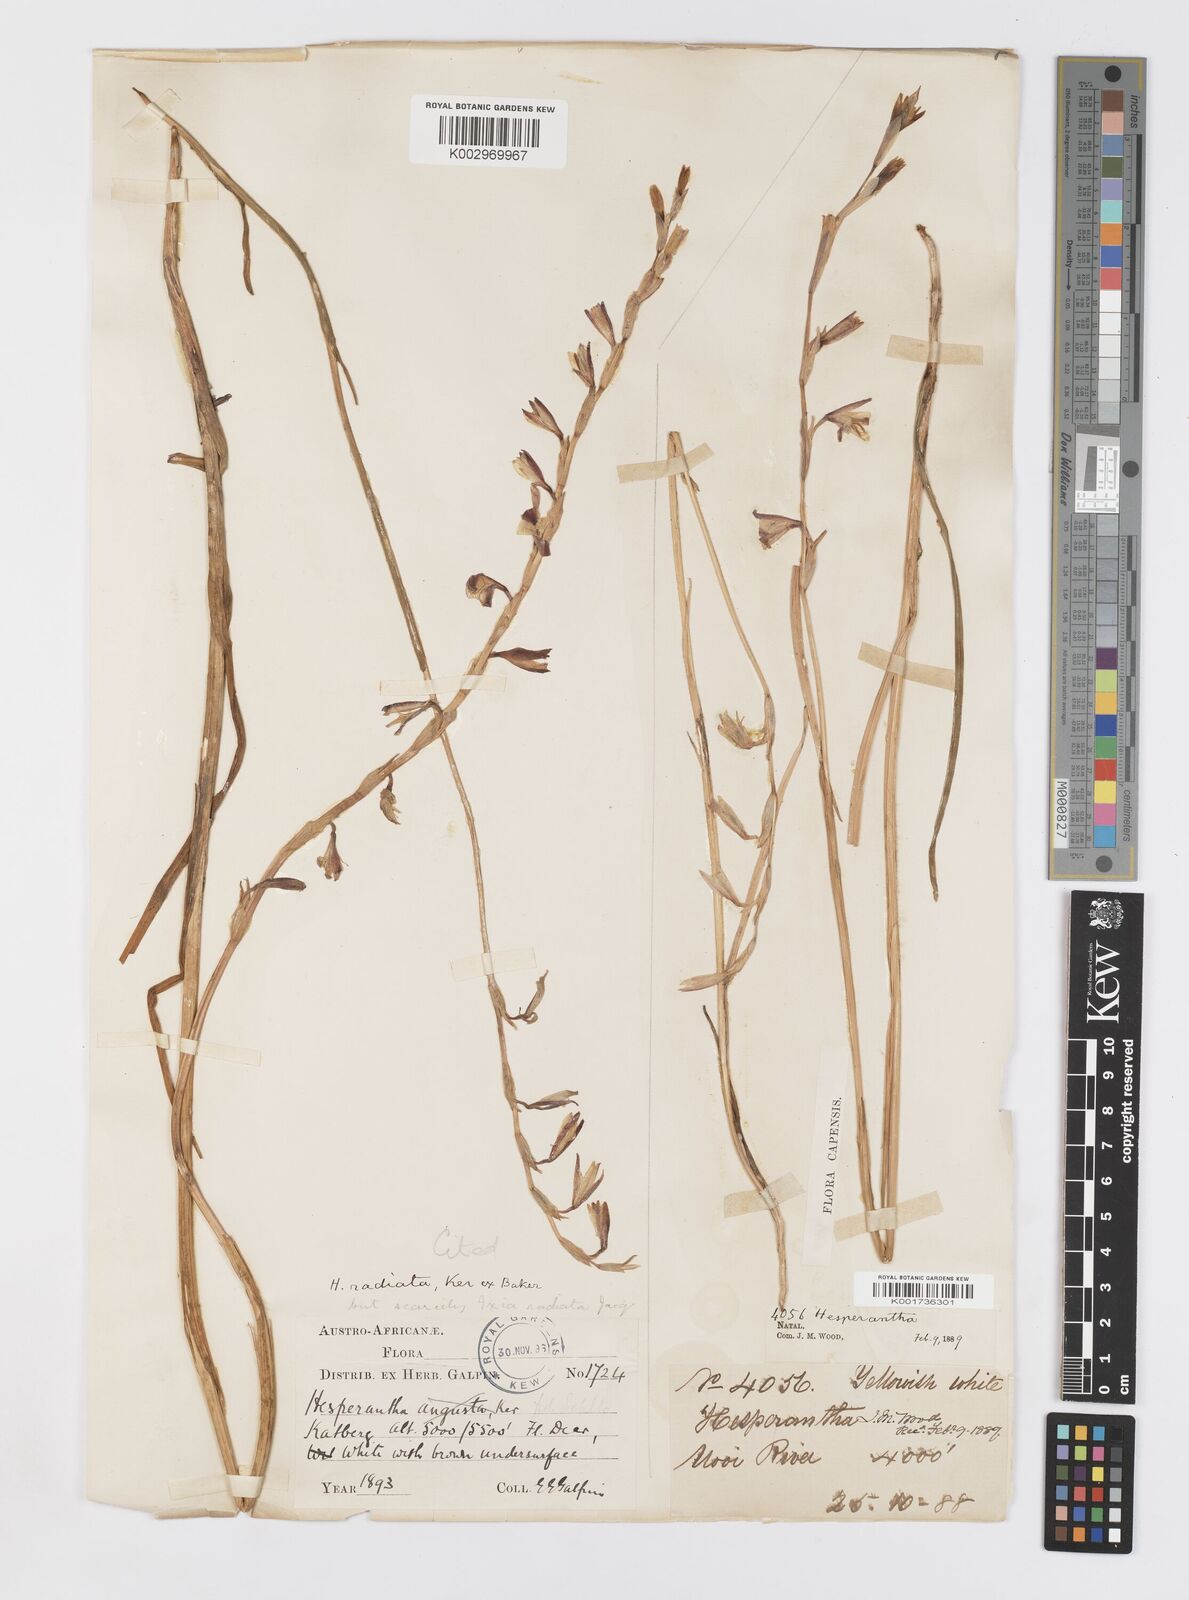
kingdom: Plantae
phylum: Tracheophyta
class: Liliopsida
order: Asparagales
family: Iridaceae
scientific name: Iridaceae
